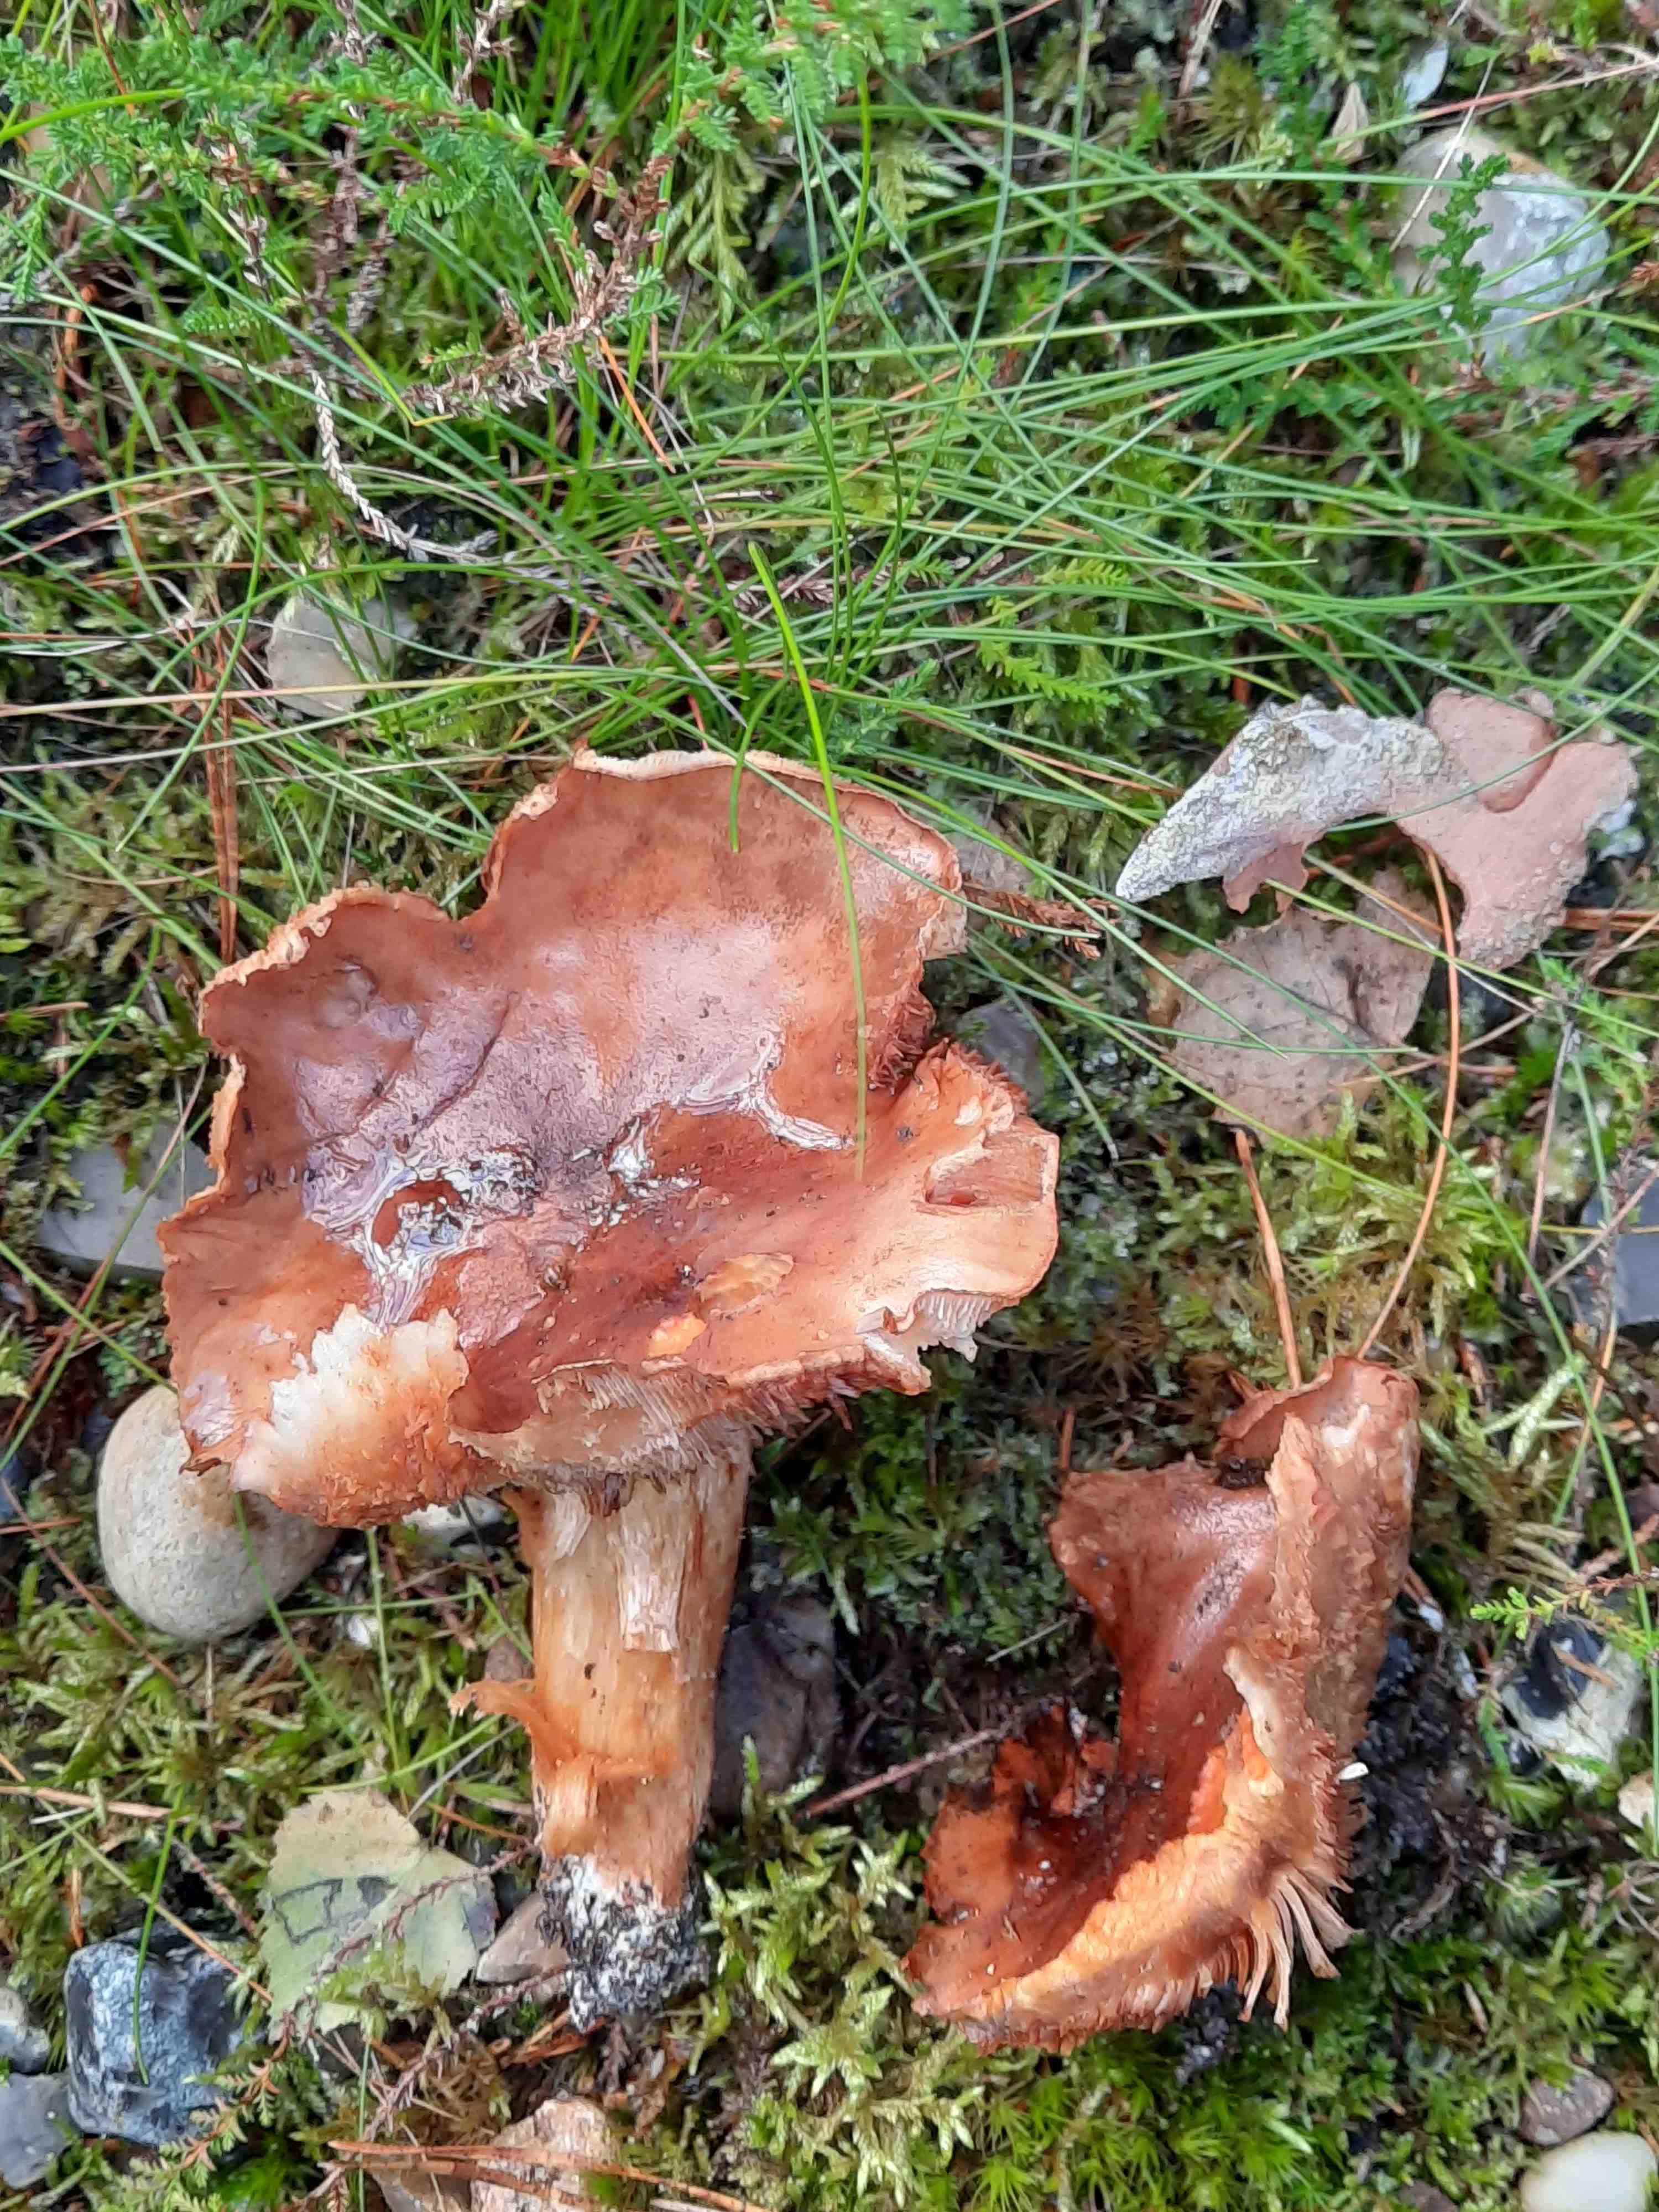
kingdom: Fungi
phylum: Basidiomycota
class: Agaricomycetes
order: Agaricales
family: Tricholomataceae
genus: Tricholoma
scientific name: Tricholoma stans
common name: stolt ridderhat
